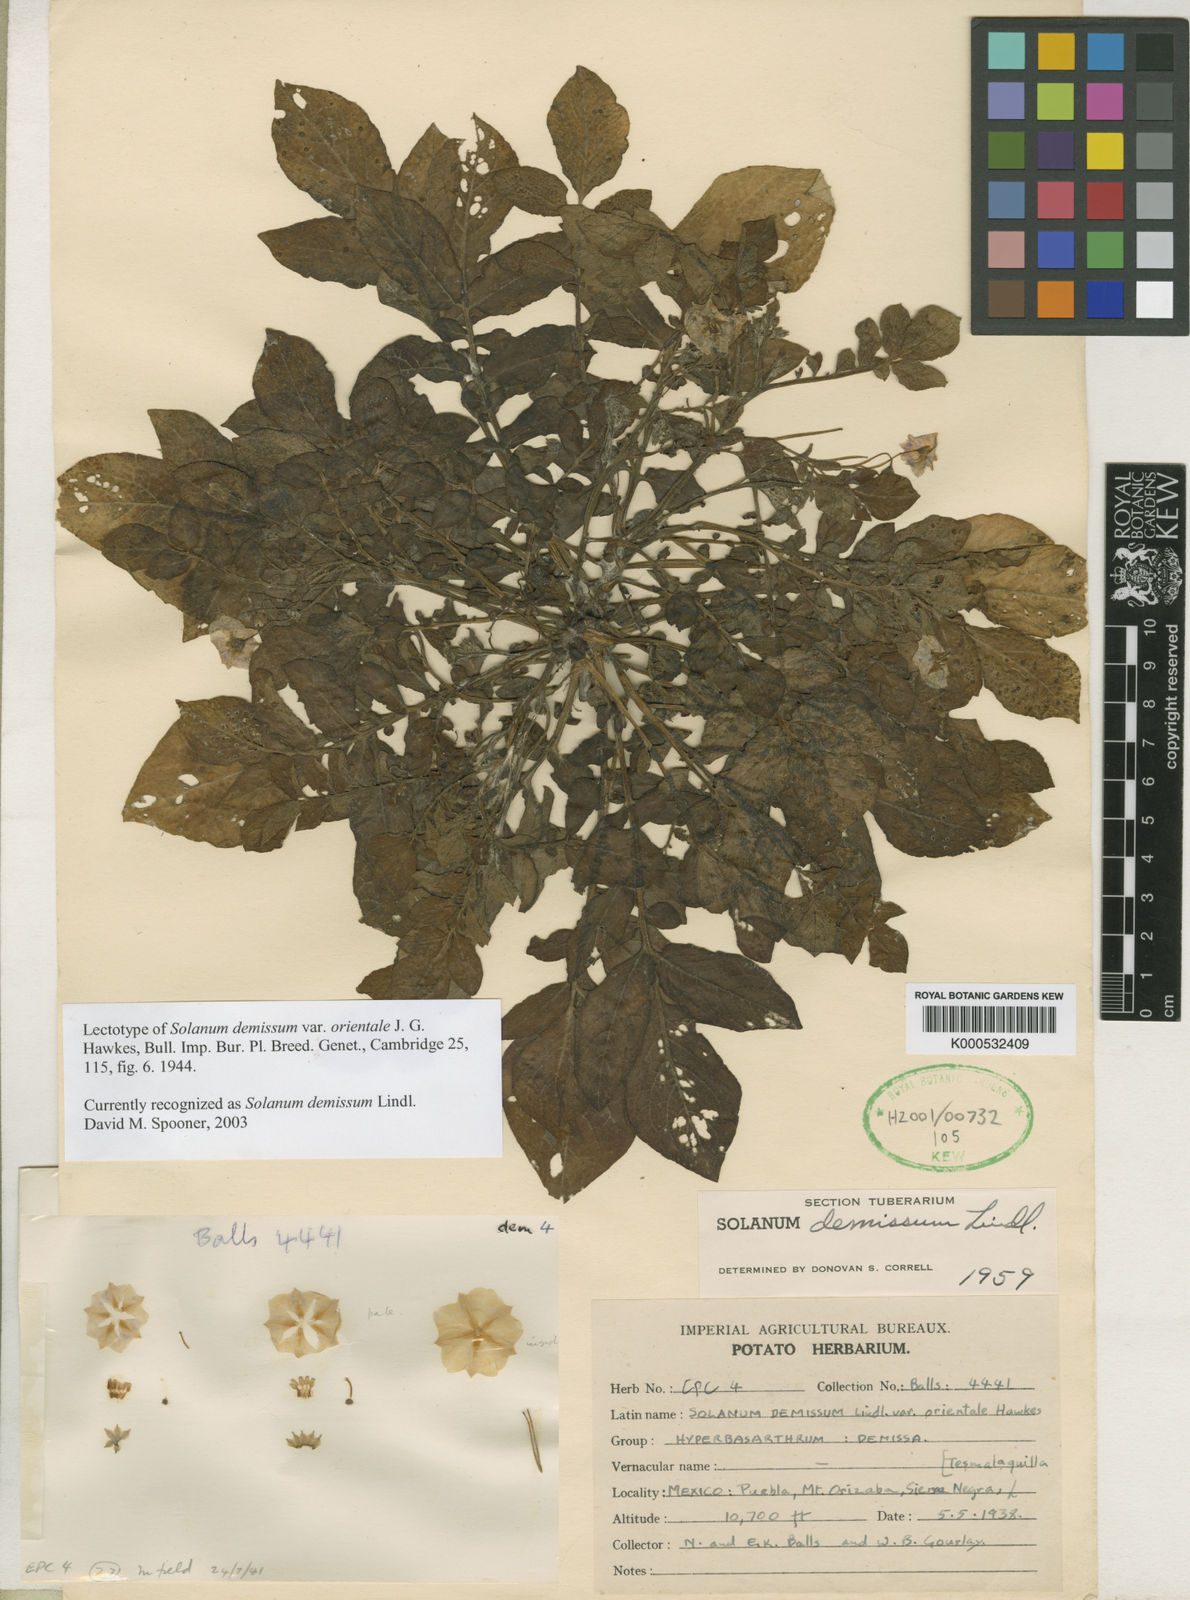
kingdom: Plantae
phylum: Tracheophyta
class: Magnoliopsida
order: Solanales
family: Solanaceae
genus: Solanum
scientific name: Solanum demissum
